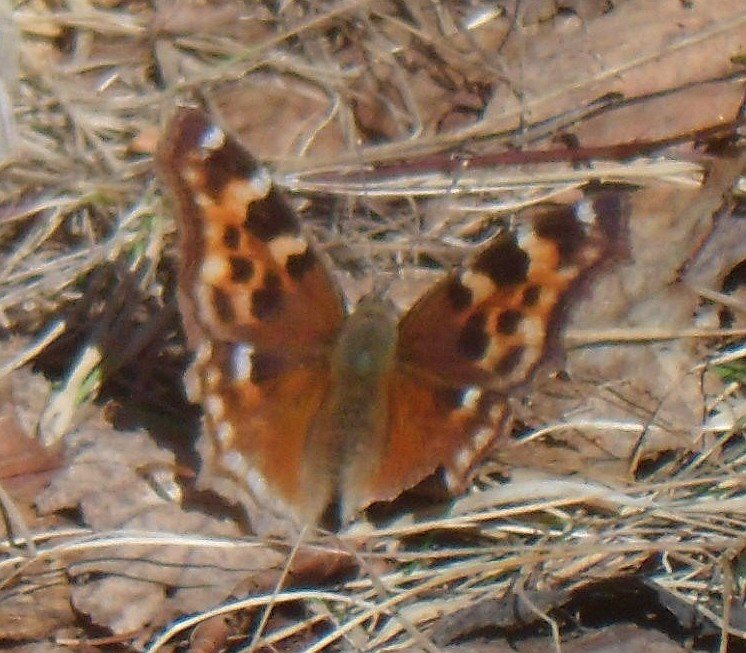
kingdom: Animalia
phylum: Arthropoda
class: Insecta
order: Lepidoptera
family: Nymphalidae
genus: Polygonia
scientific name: Polygonia vaualbum
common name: Compton Tortoiseshell
